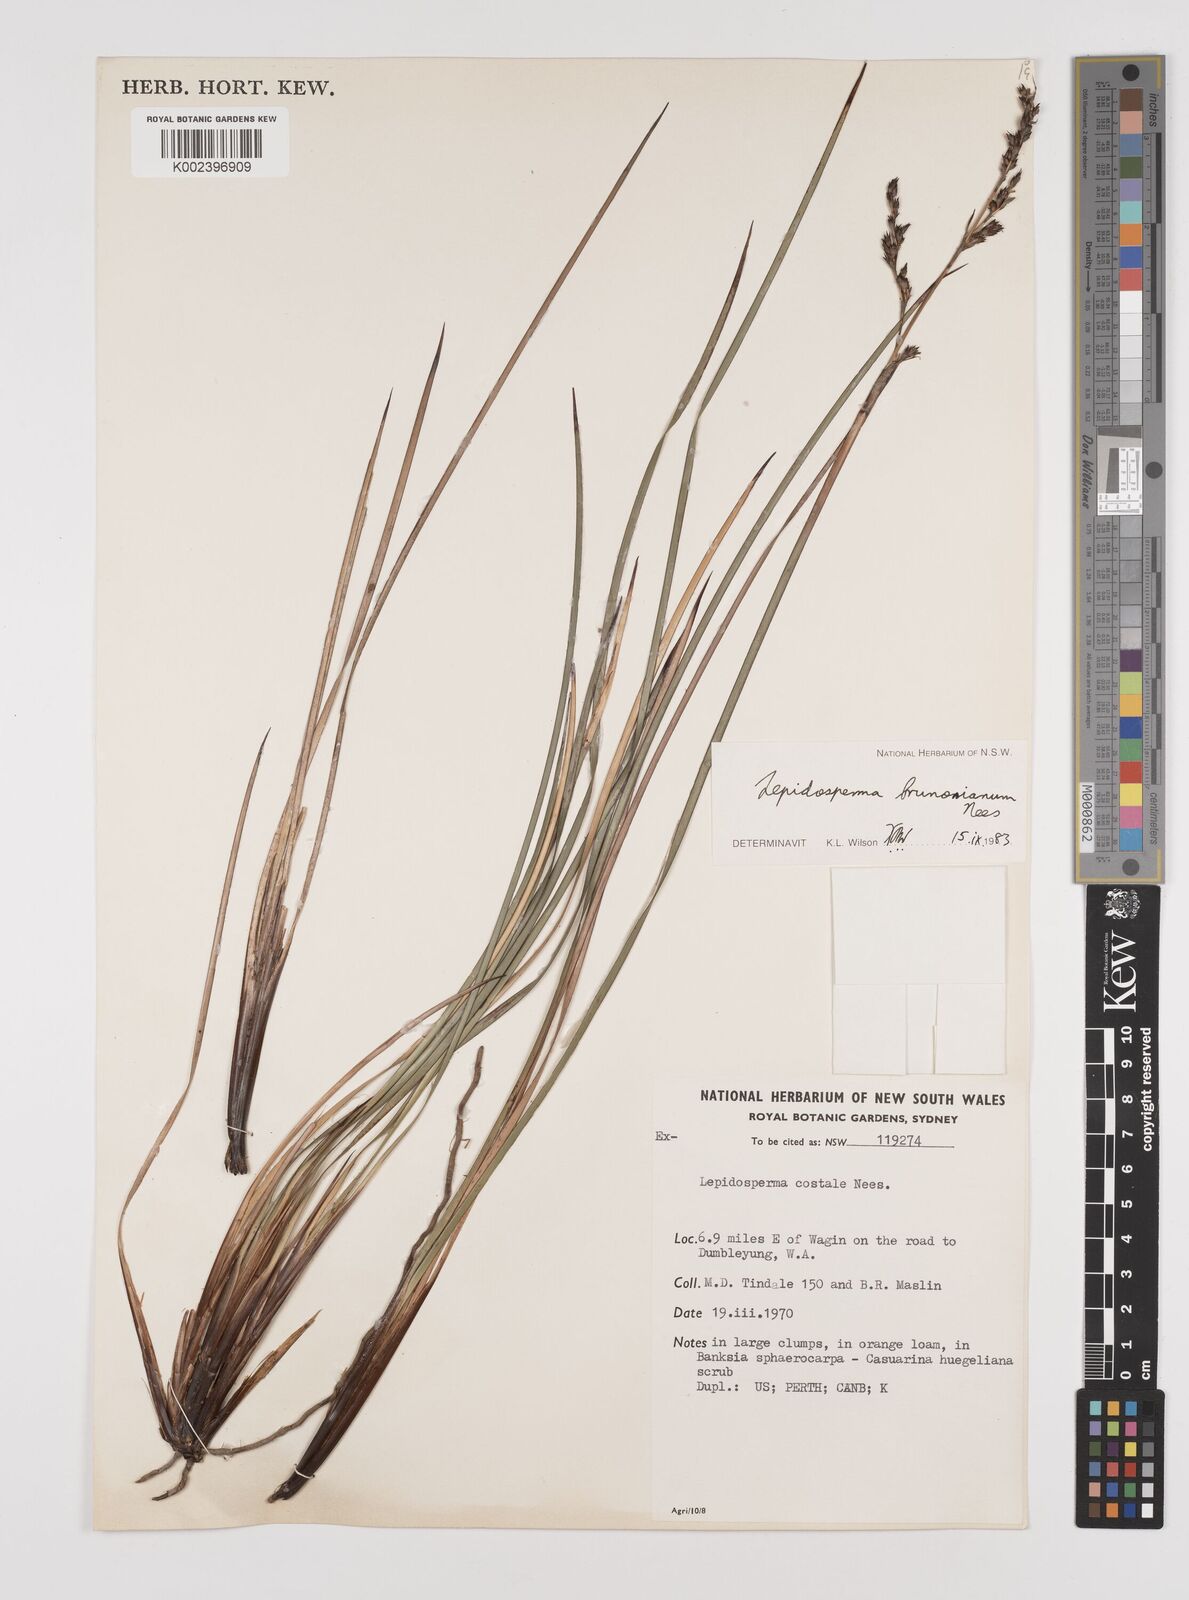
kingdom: Plantae
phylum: Tracheophyta
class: Liliopsida
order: Poales
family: Cyperaceae
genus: Lepidosperma
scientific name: Lepidosperma sieberi
